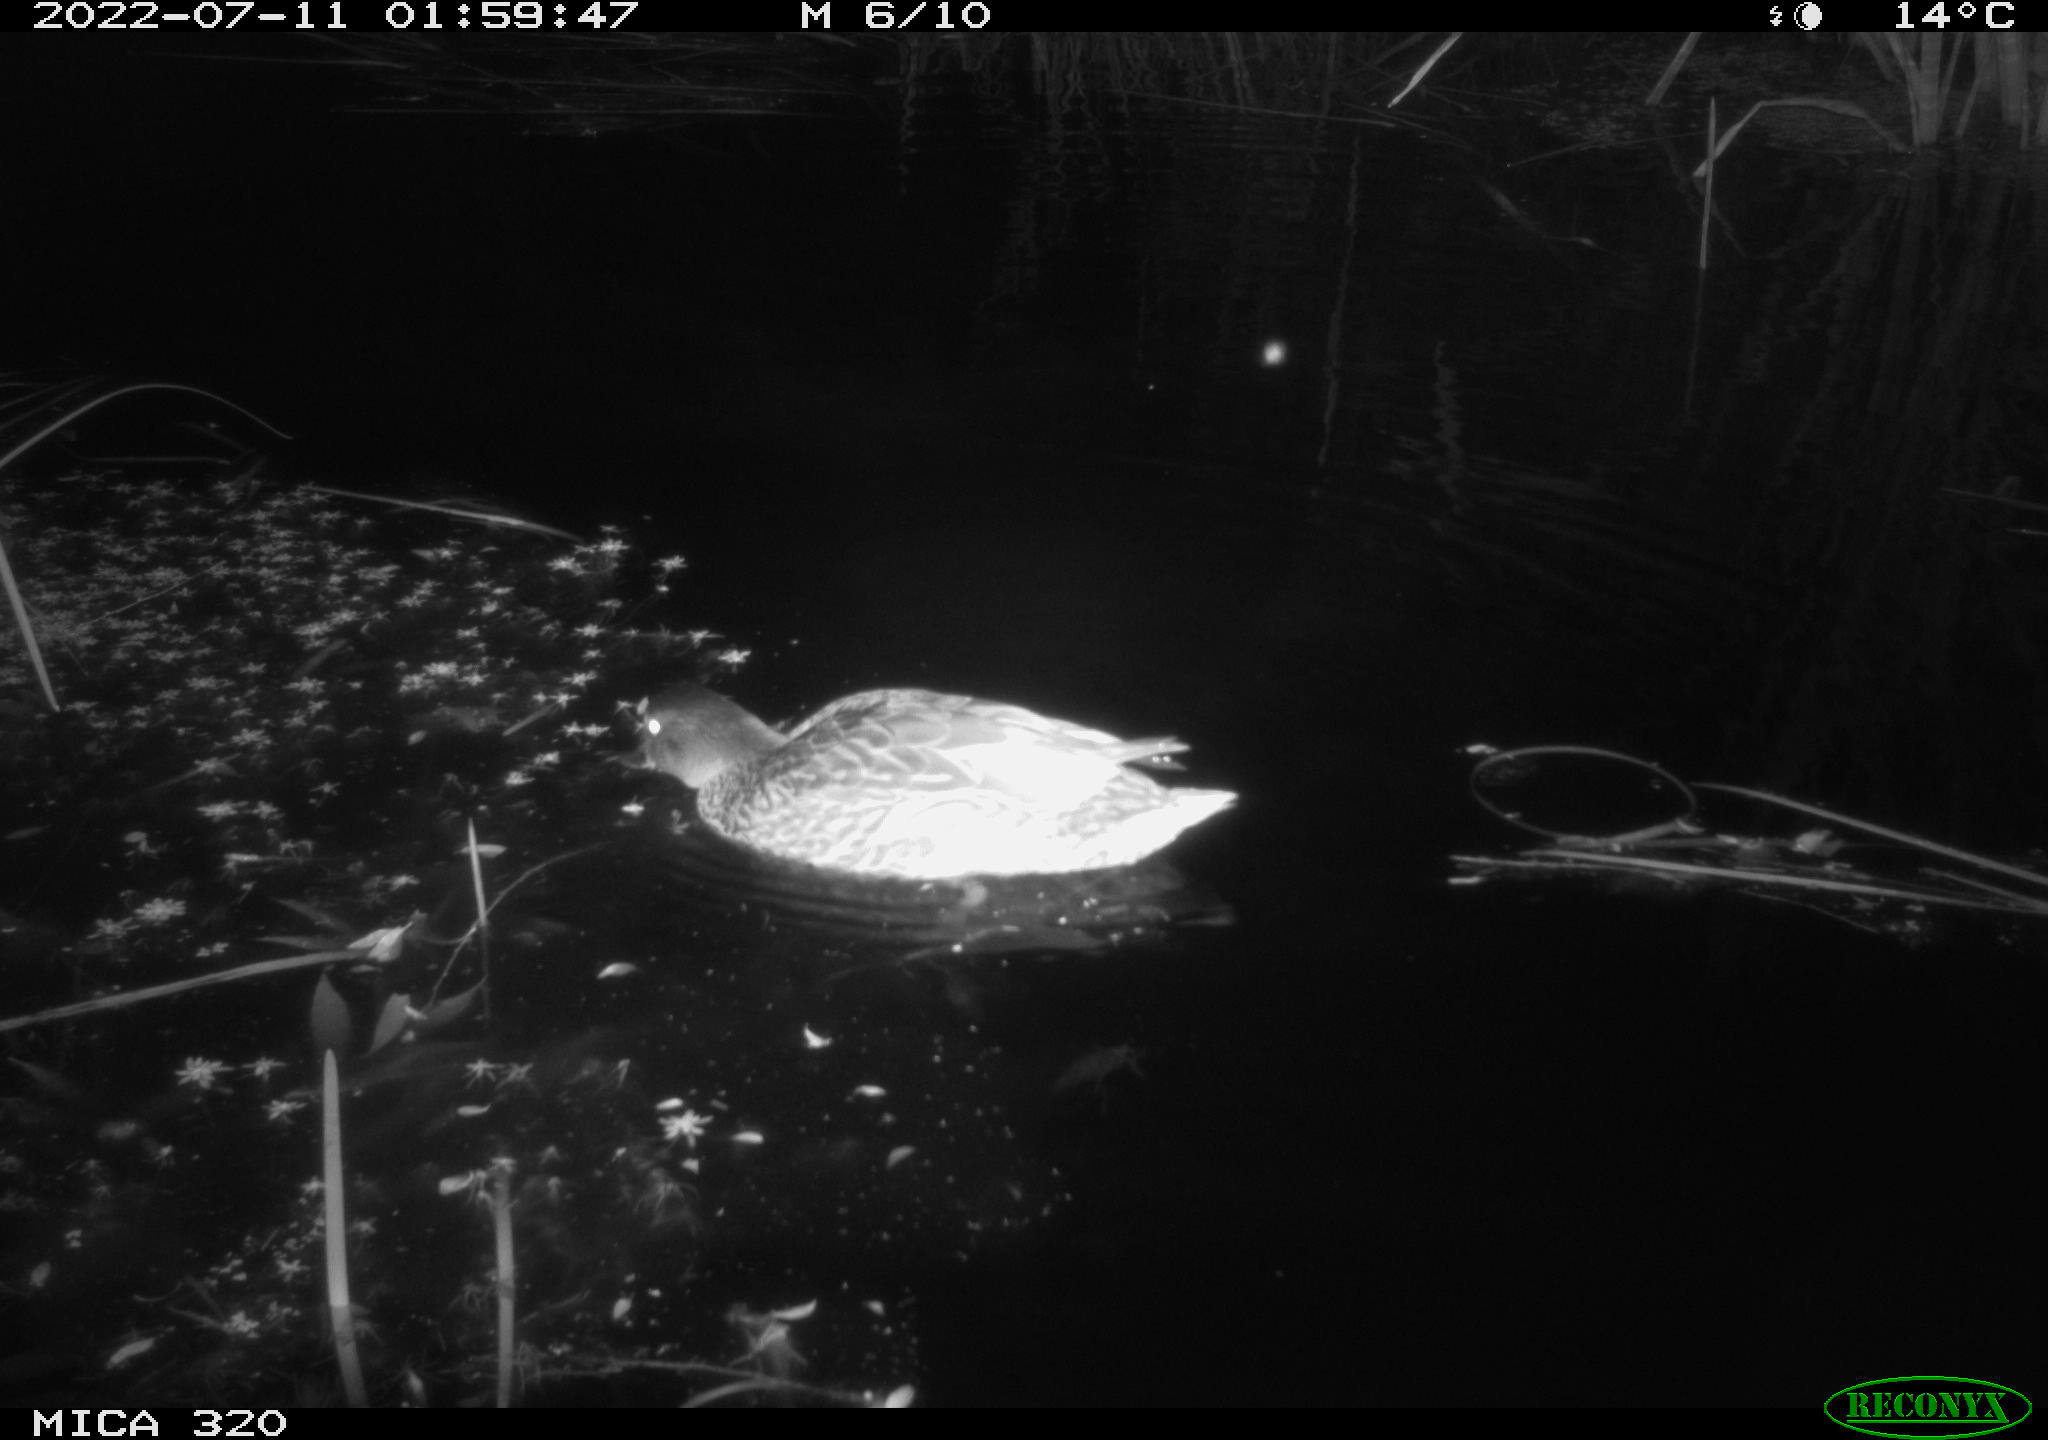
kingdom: Animalia
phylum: Chordata
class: Aves
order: Anseriformes
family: Anatidae
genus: Anas
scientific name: Anas platyrhynchos
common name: Mallard
